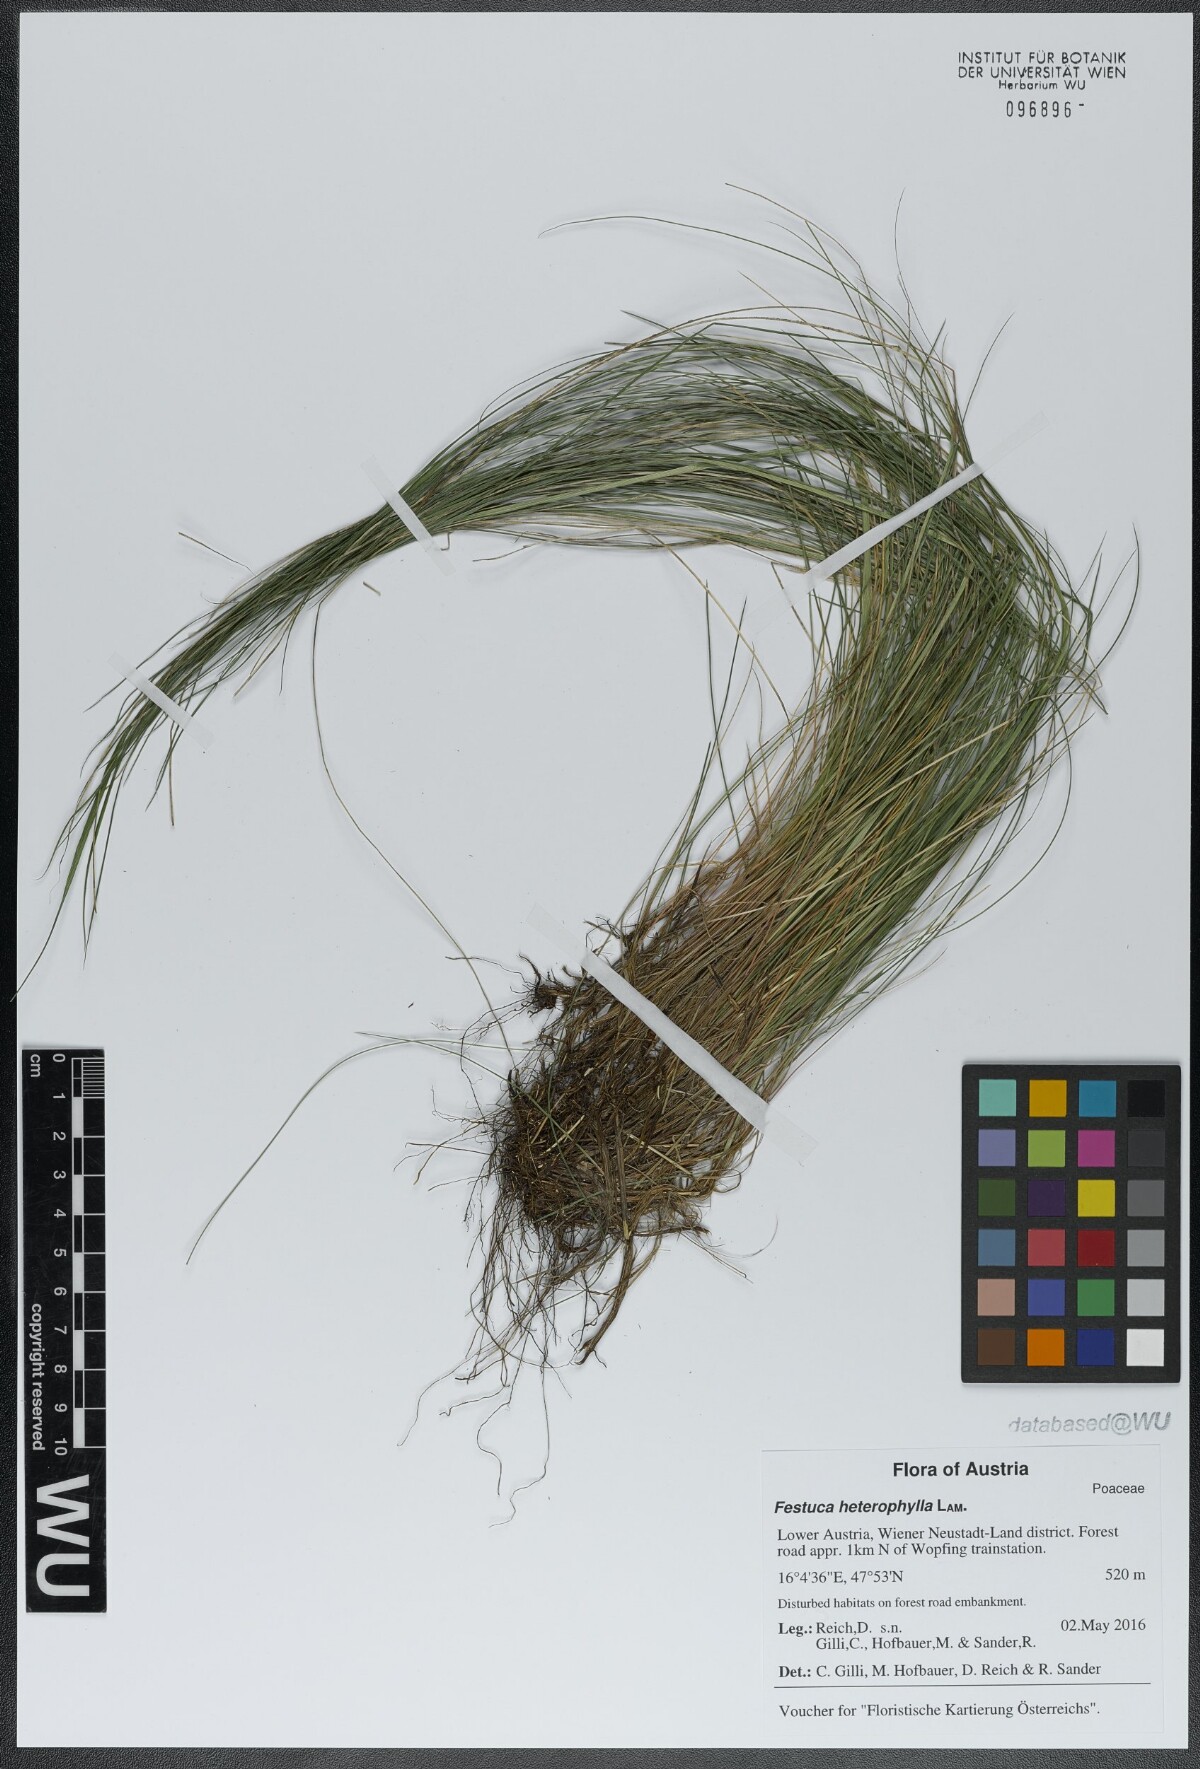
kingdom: Plantae
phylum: Tracheophyta
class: Liliopsida
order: Poales
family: Poaceae
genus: Festuca
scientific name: Festuca heterophylla
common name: Various-leaved fescue
